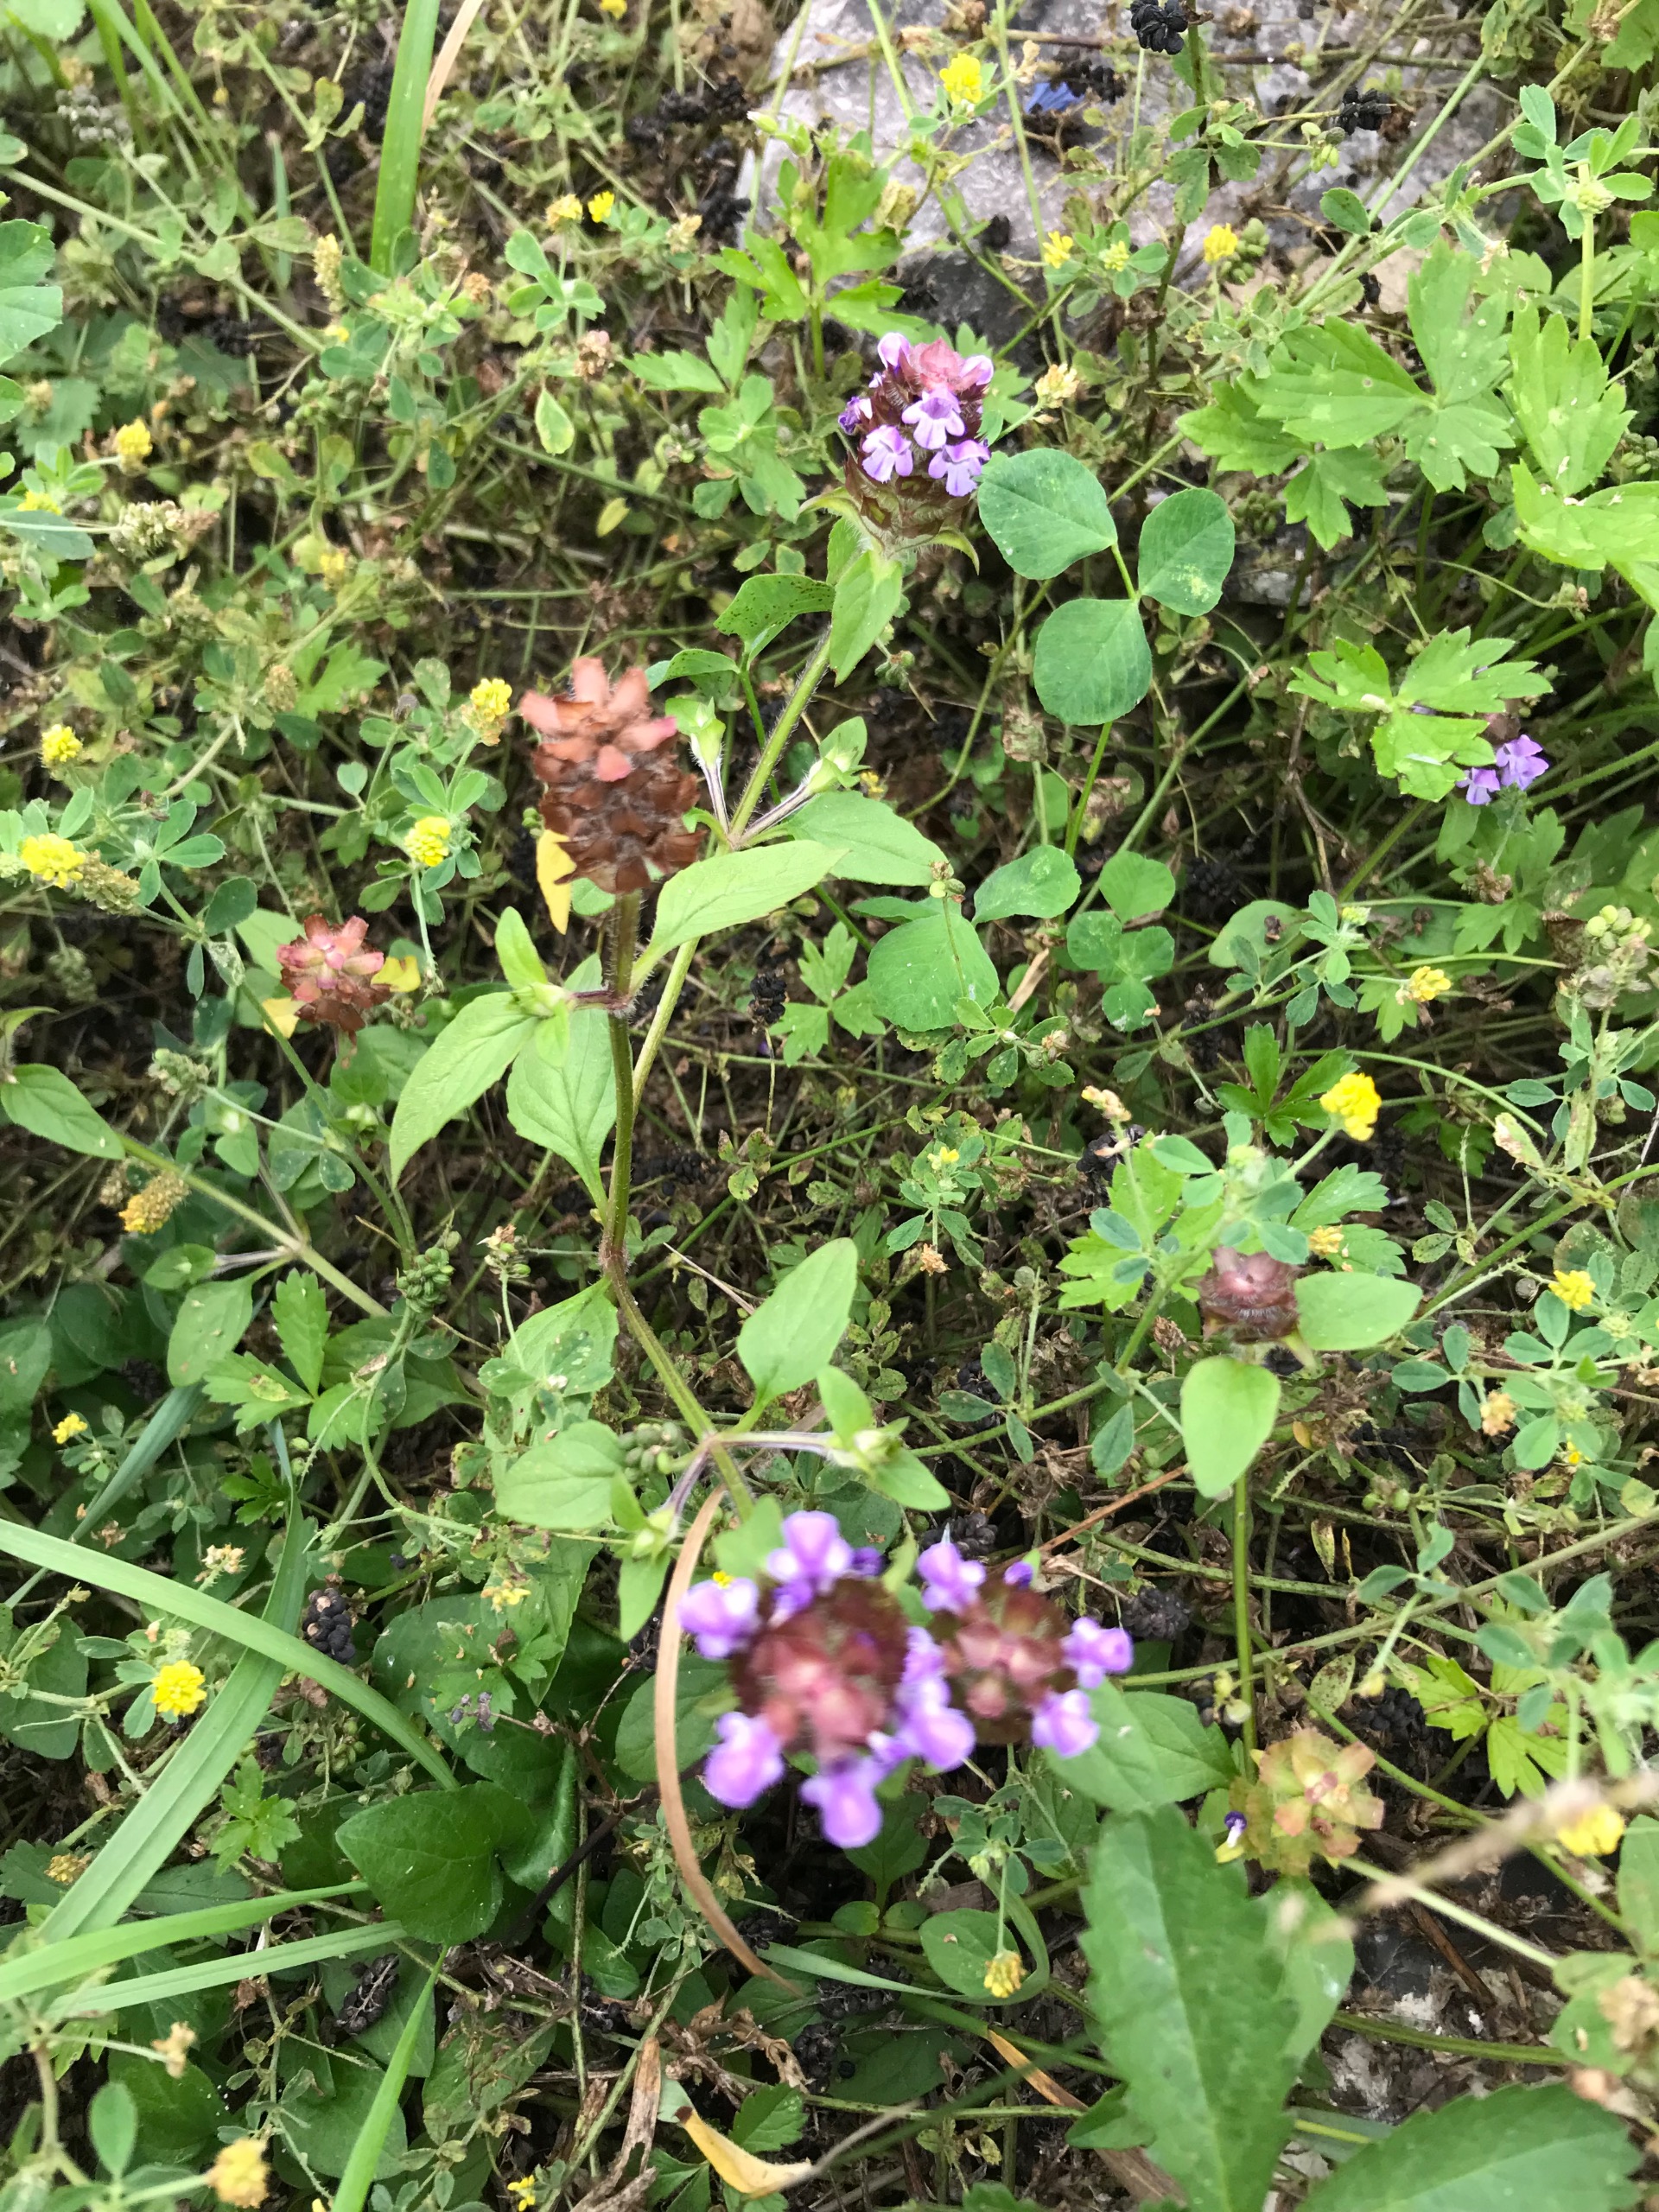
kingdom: Plantae
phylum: Tracheophyta
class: Magnoliopsida
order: Lamiales
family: Lamiaceae
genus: Prunella
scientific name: Prunella vulgaris
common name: Almindelig brunelle
